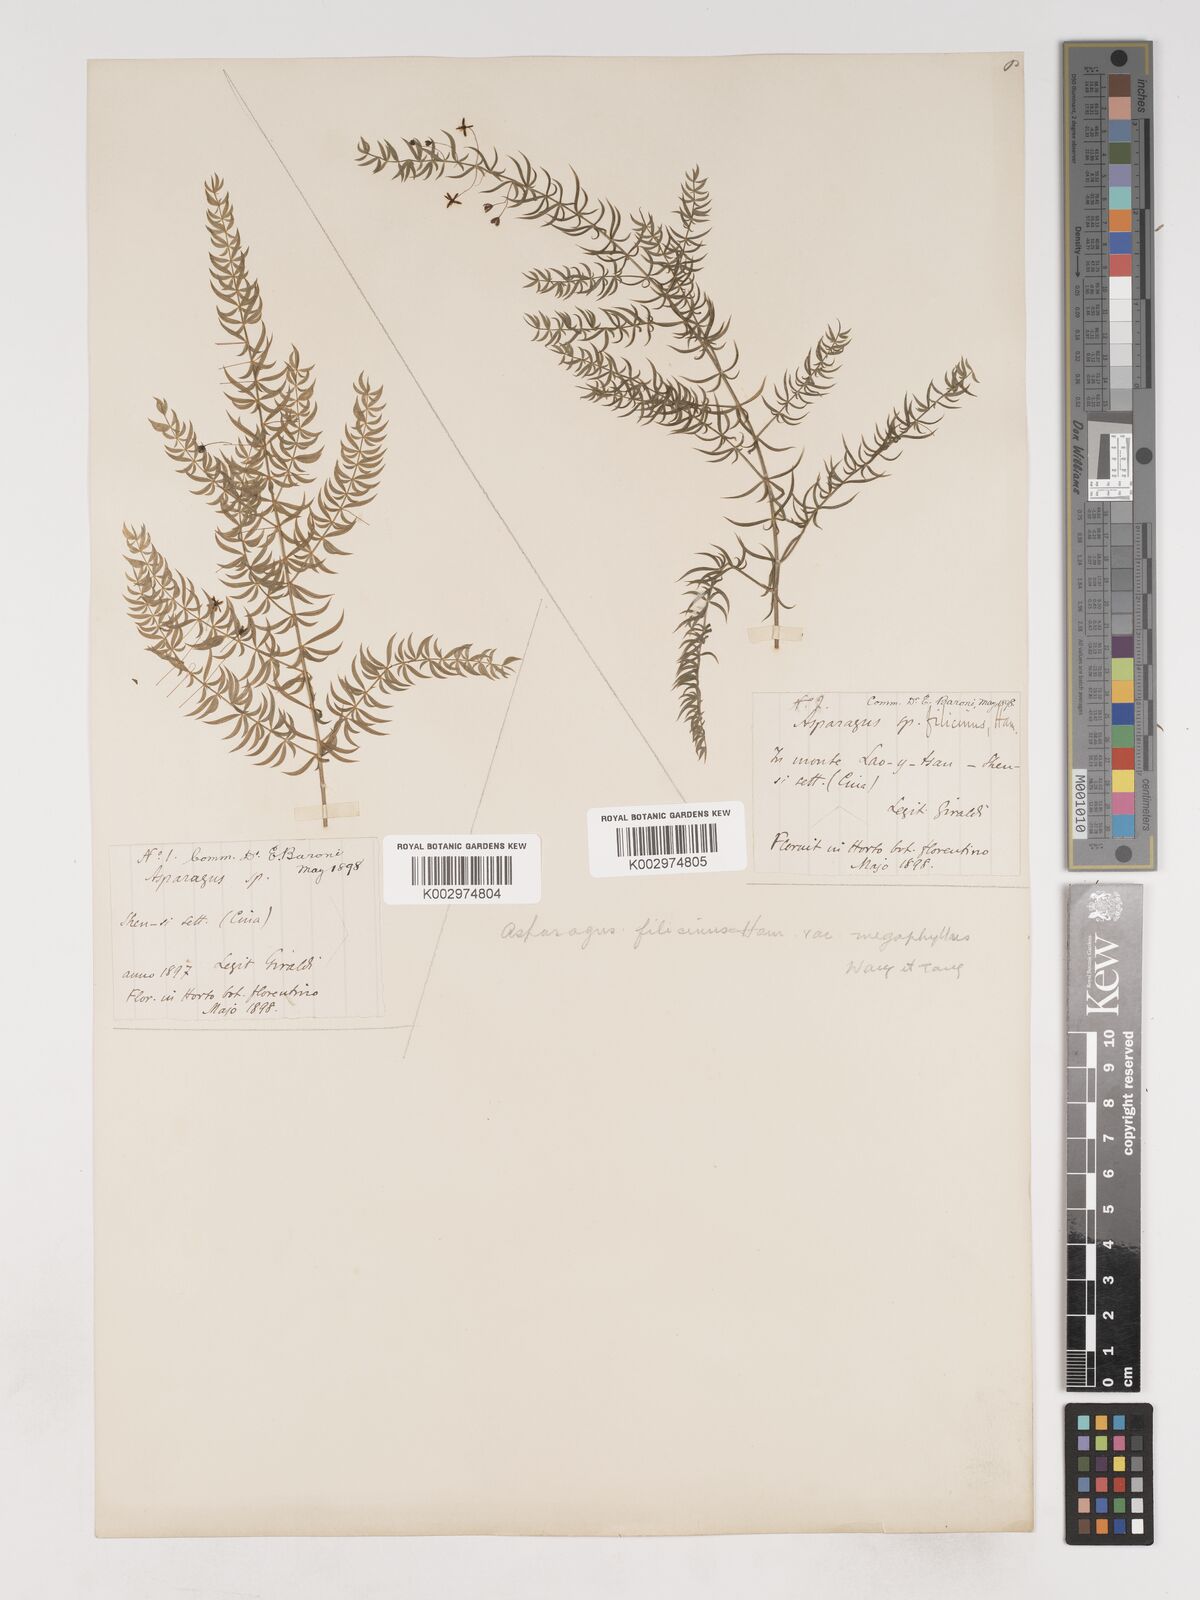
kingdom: Plantae
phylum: Tracheophyta
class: Liliopsida
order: Asparagales
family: Asparagaceae
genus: Asparagus
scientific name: Asparagus filicinus
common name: Fern asparagus
